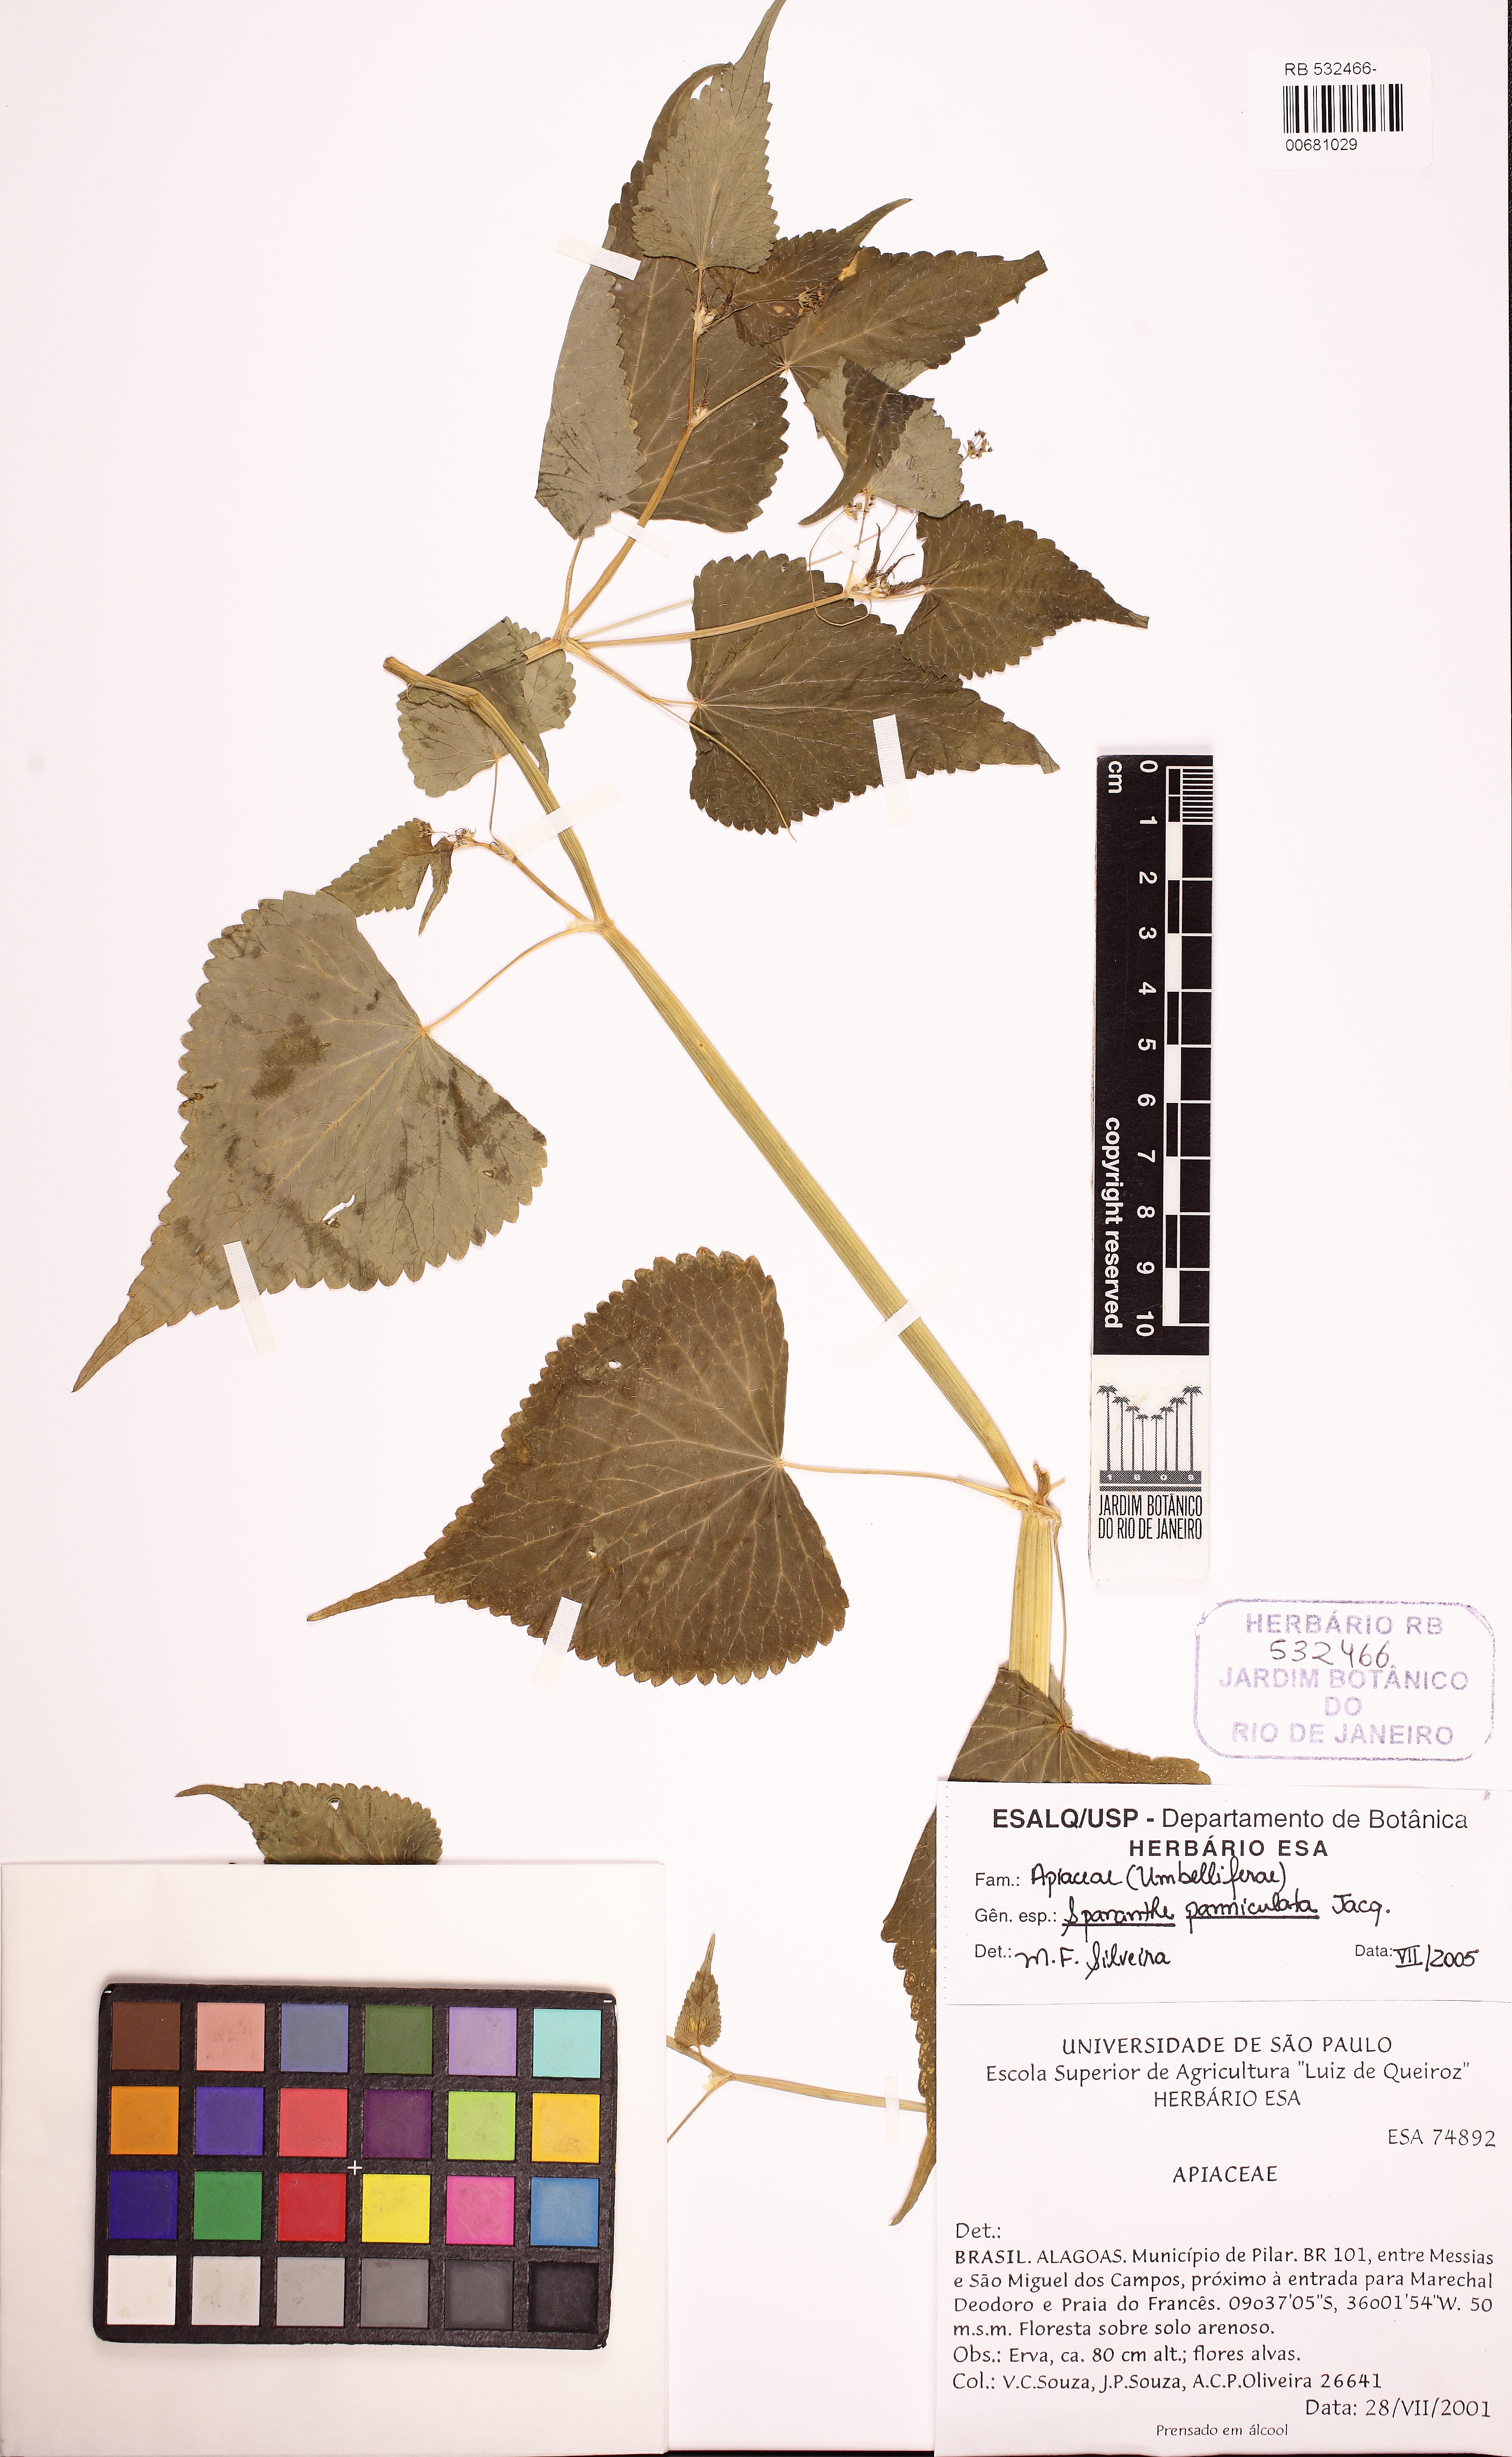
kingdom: Plantae
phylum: Tracheophyta
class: Magnoliopsida
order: Apiales
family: Apiaceae
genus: Spananthe
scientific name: Spananthe paniculata
